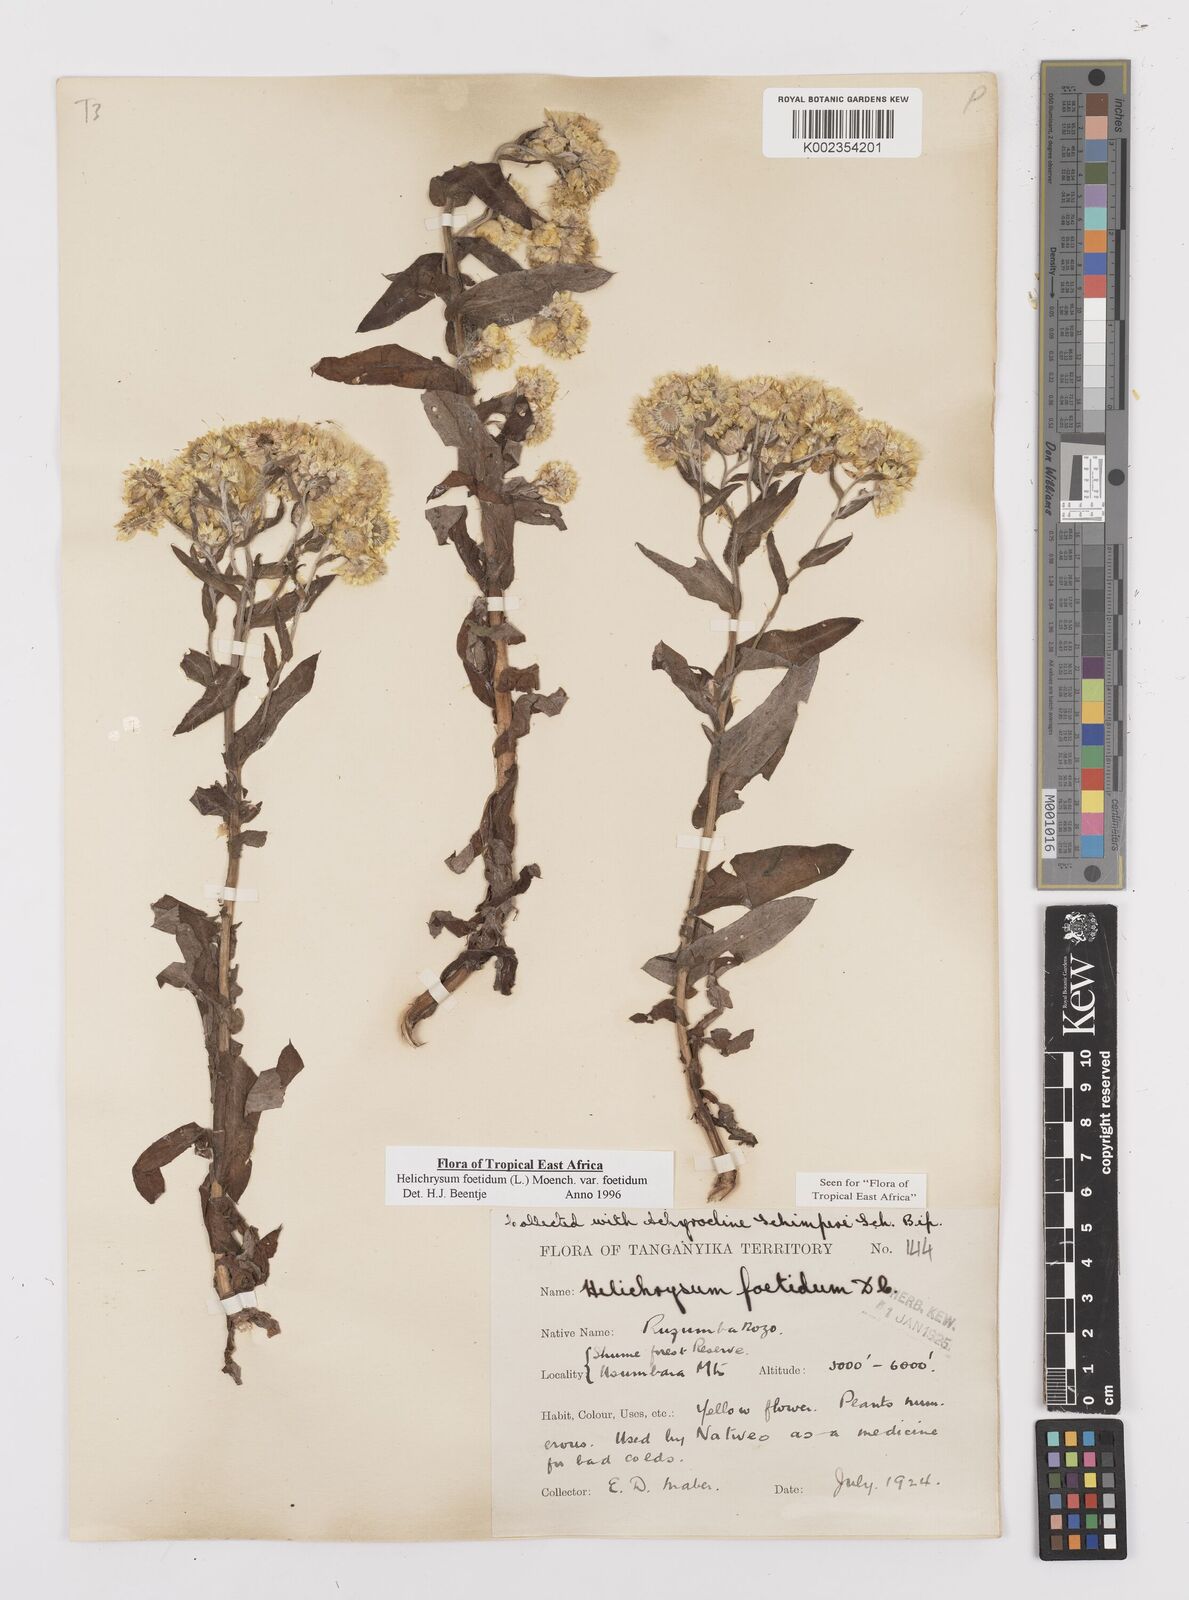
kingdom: Plantae
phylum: Tracheophyta
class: Magnoliopsida
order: Asterales
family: Asteraceae
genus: Helichrysum
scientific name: Helichrysum foetidum
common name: Stinking everlasting
